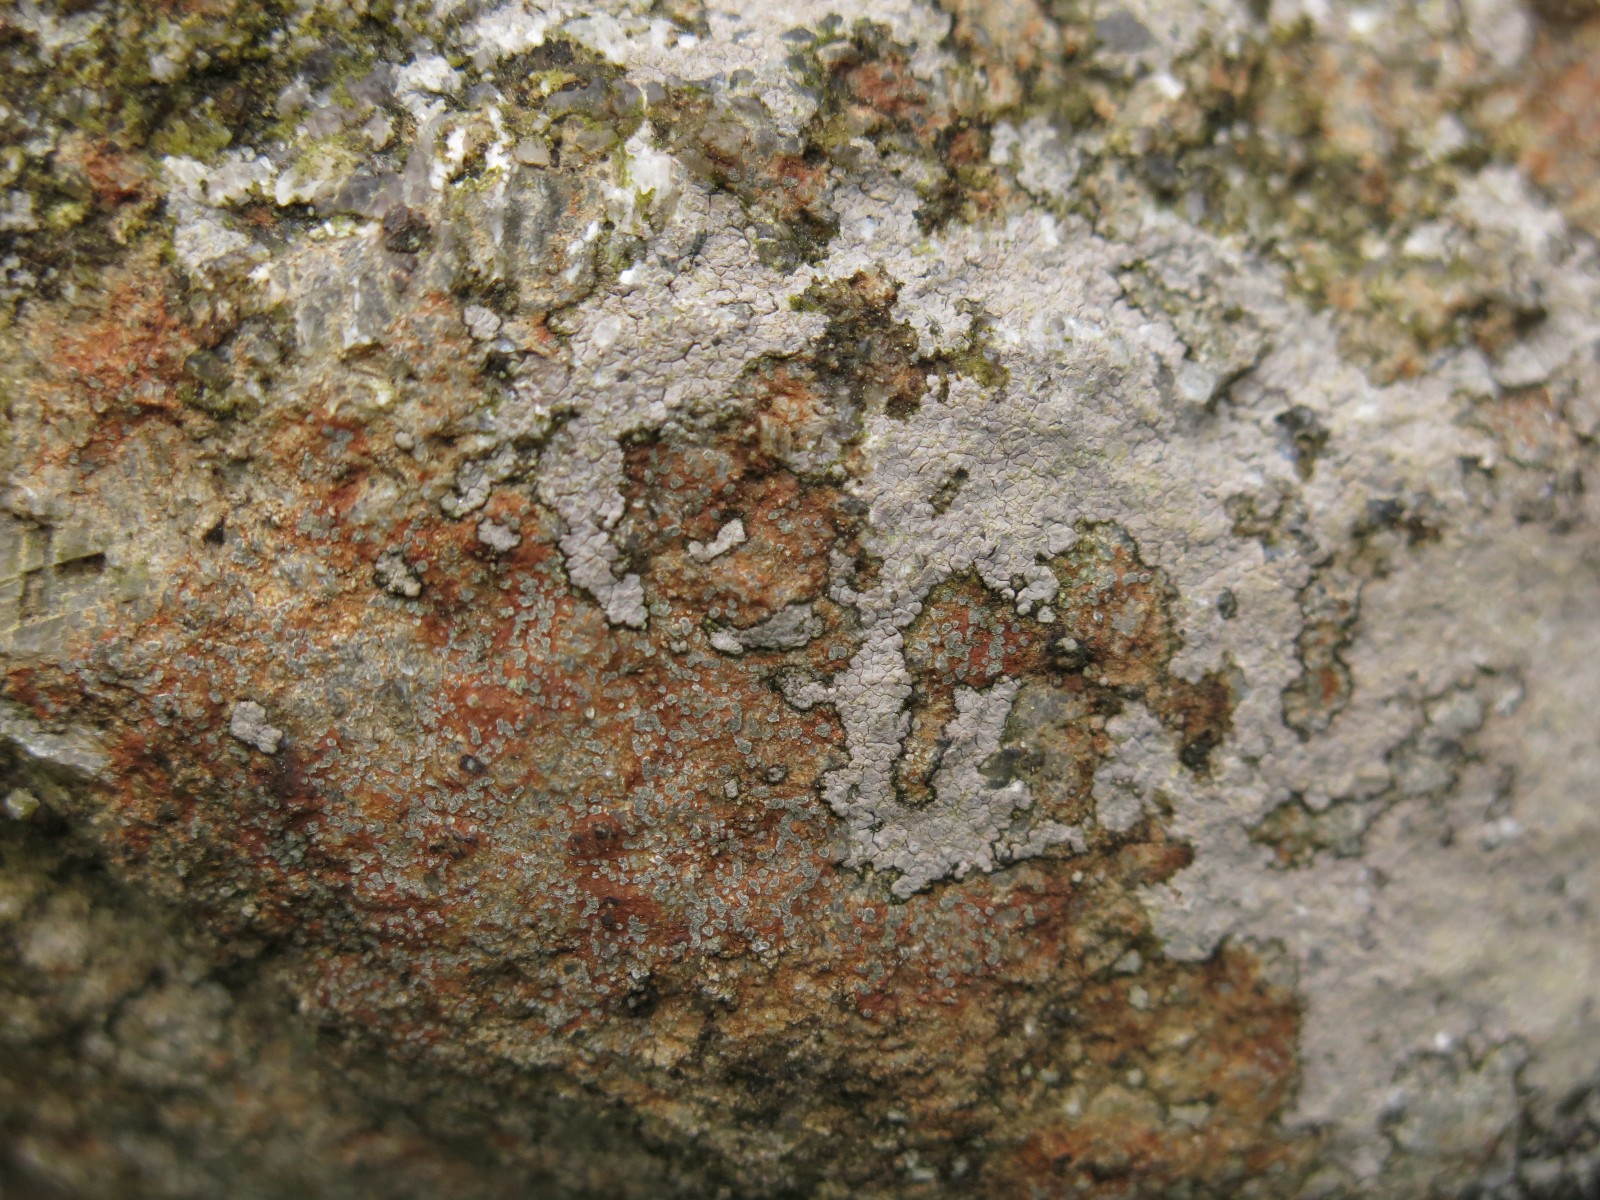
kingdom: Fungi
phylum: Ascomycota
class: Lecanoromycetes
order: Lecideales
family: Lecideaceae
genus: Porpidia
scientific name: Porpidia ochrolemma
